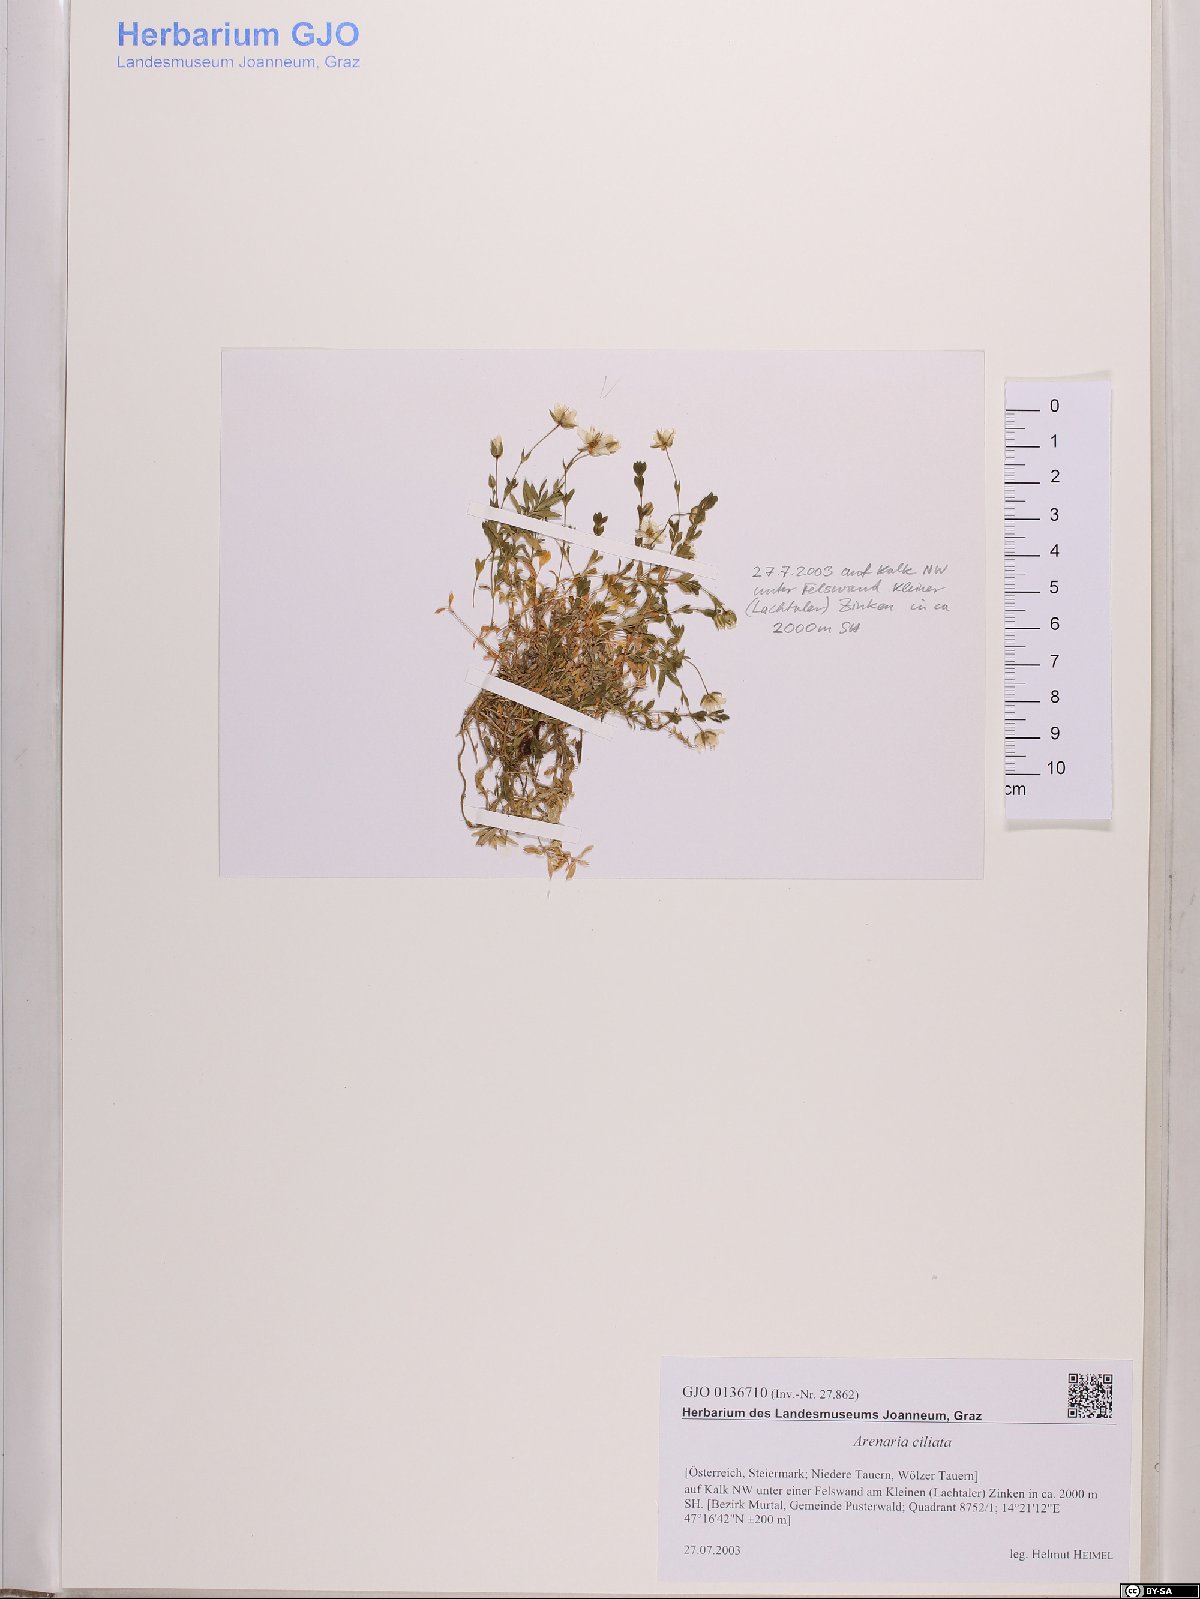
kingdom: Plantae
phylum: Tracheophyta
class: Magnoliopsida
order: Caryophyllales
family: Caryophyllaceae
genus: Arenaria
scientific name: Arenaria ciliata
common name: Fringed sandwort
